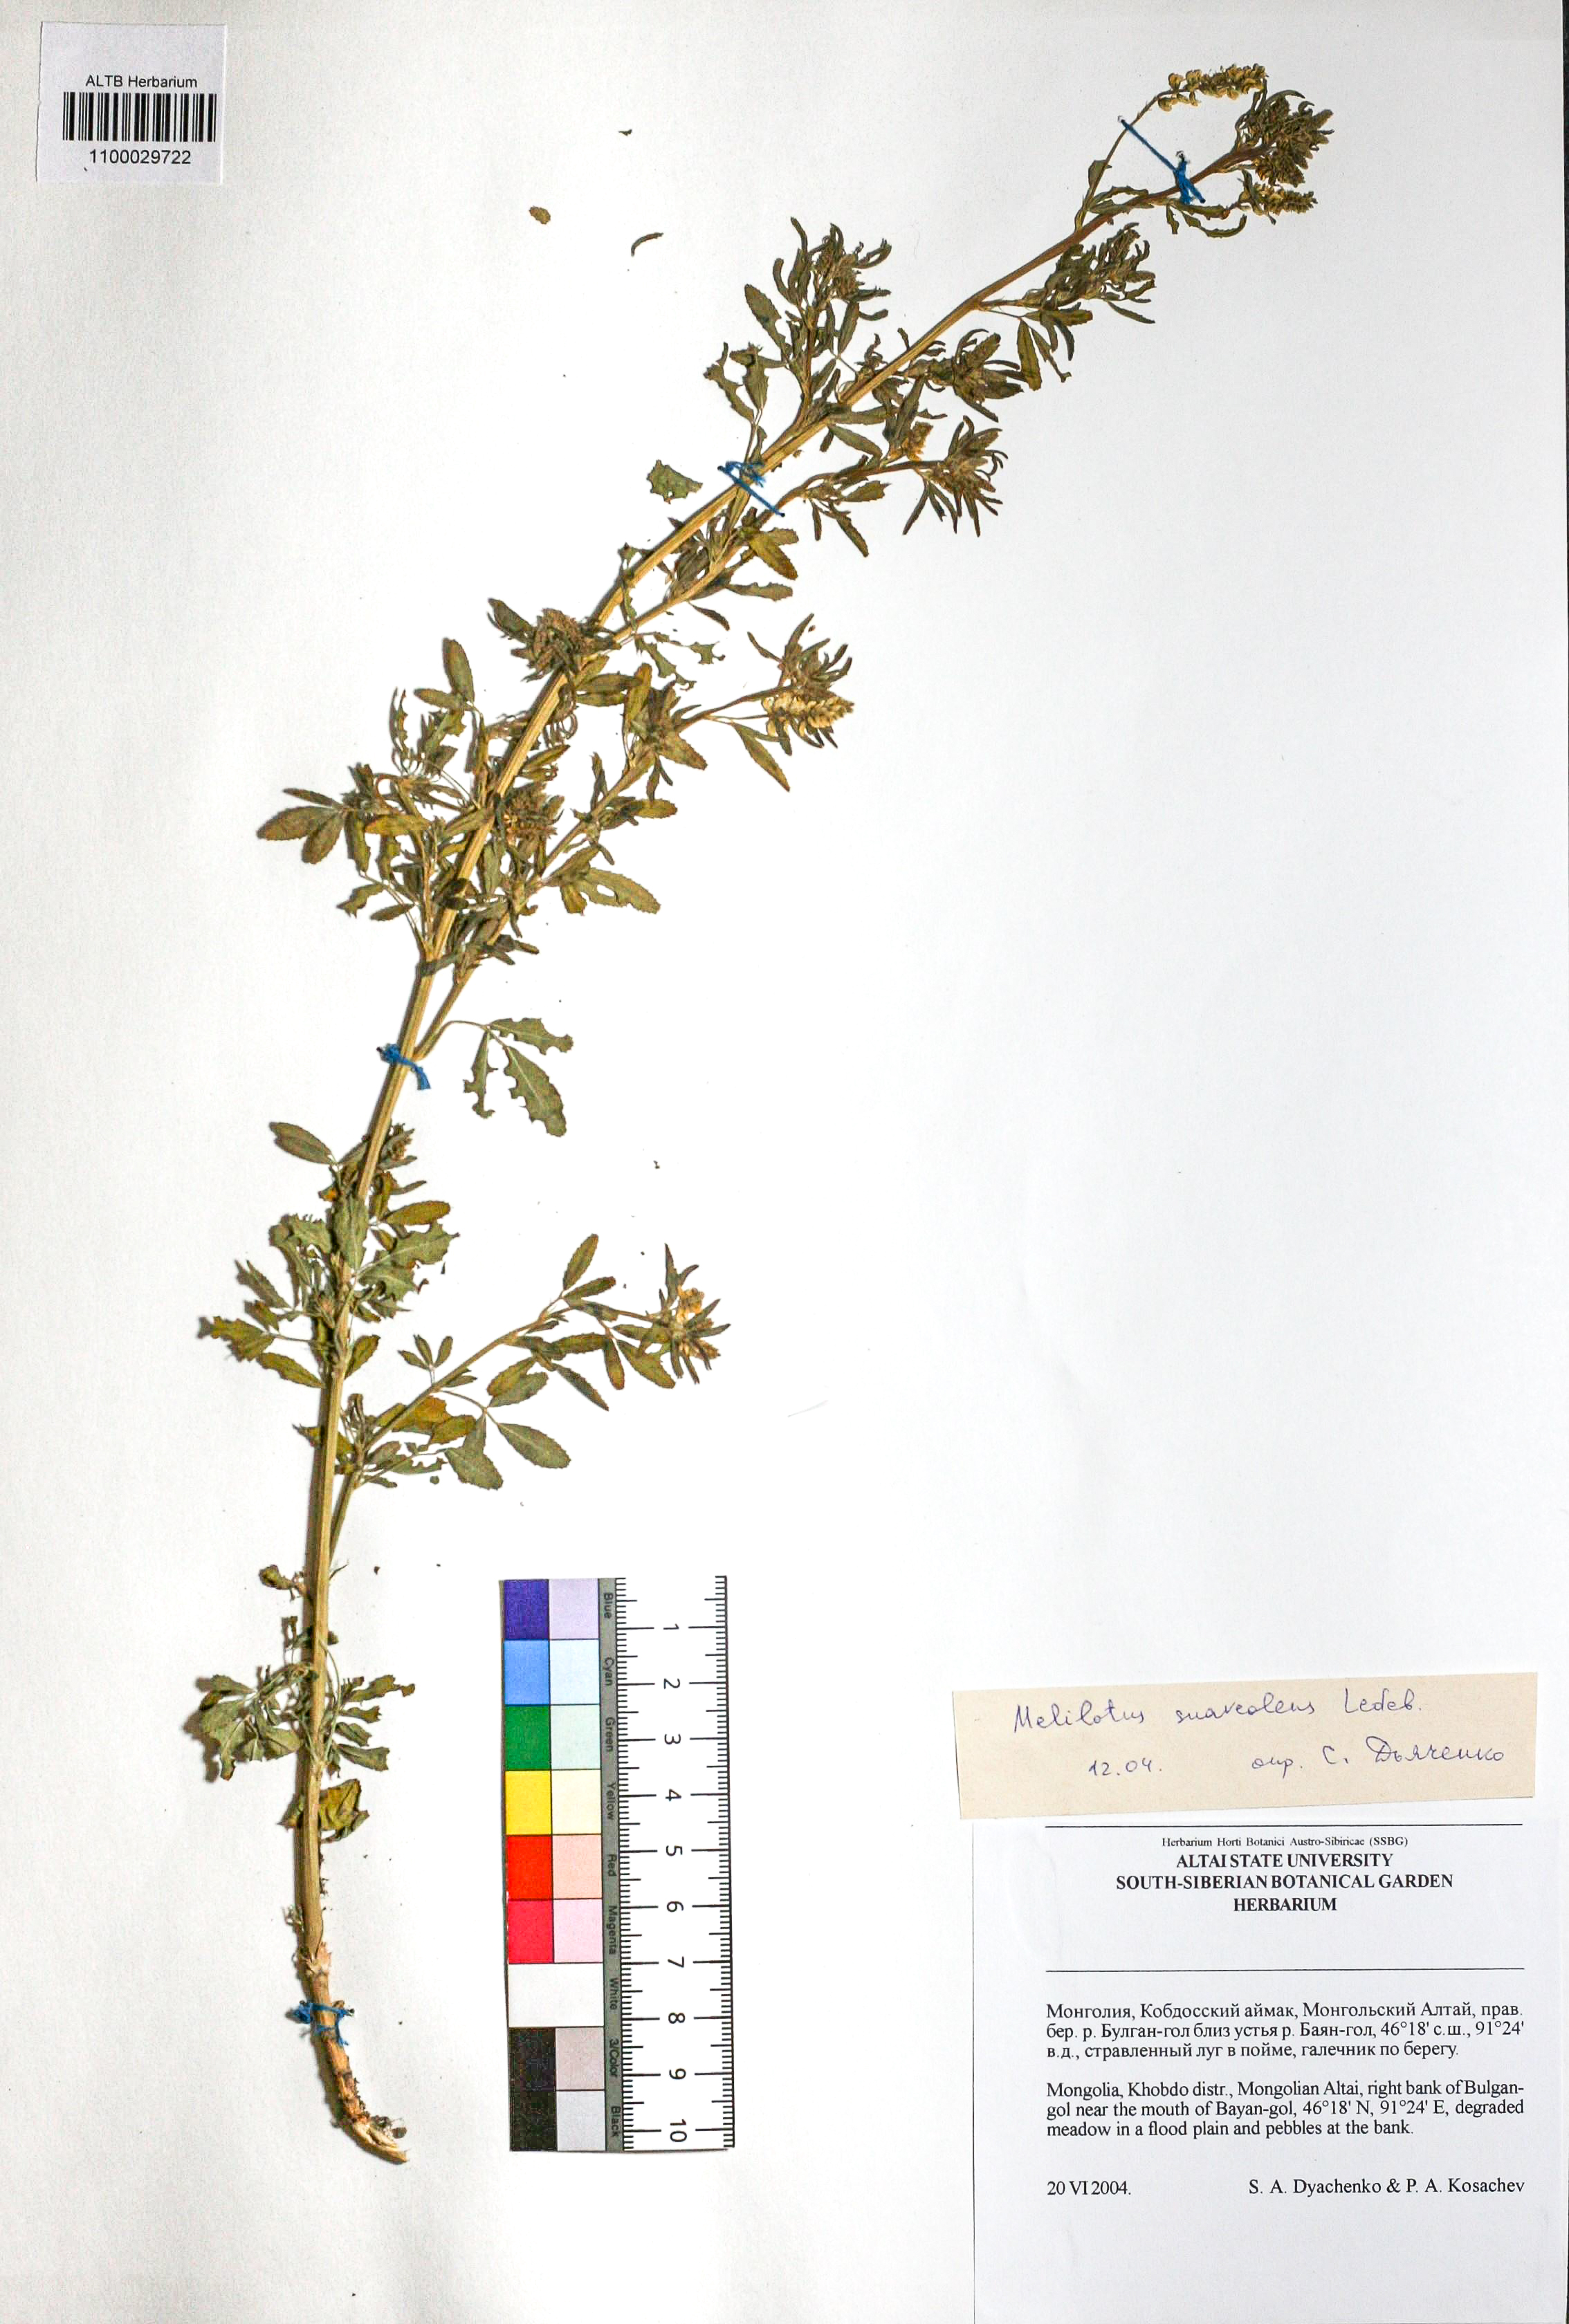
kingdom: Plantae
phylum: Tracheophyta
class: Magnoliopsida
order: Fabales
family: Fabaceae
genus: Melilotus
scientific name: Melilotus suaveolens
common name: Daghestan sweet-clover
